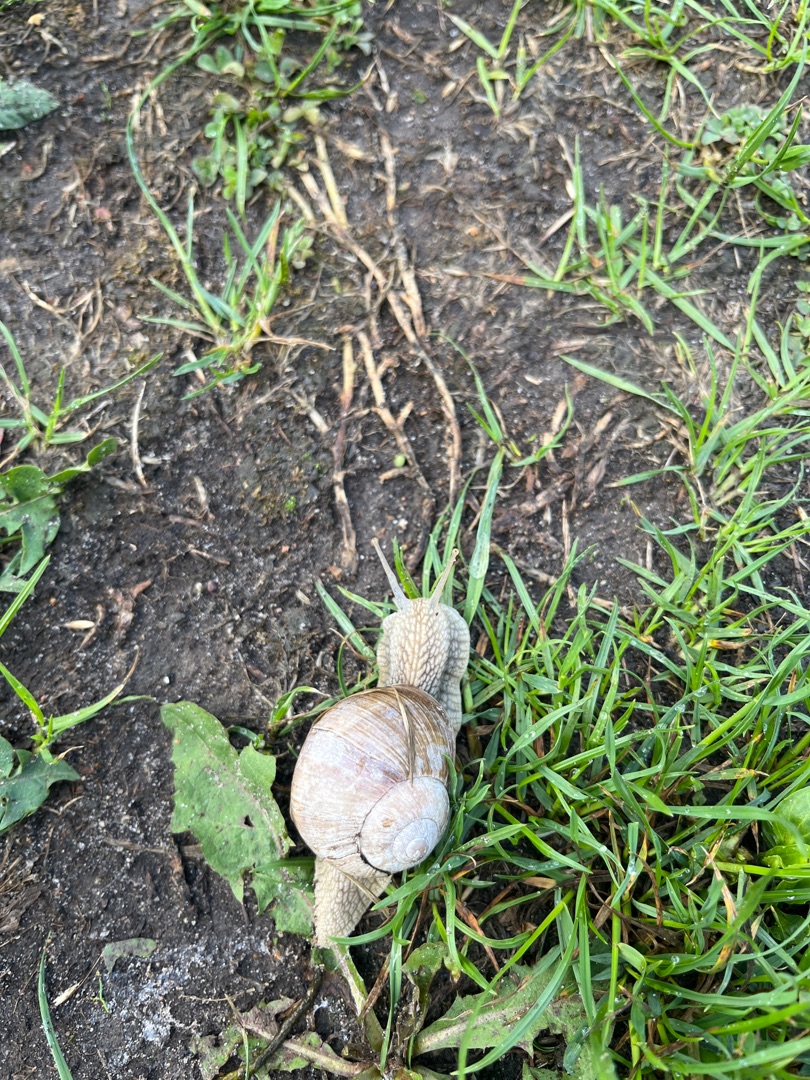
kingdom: Animalia
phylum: Mollusca
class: Gastropoda
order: Stylommatophora
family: Helicidae
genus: Helix
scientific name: Helix pomatia
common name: Vinbjergsnegl
